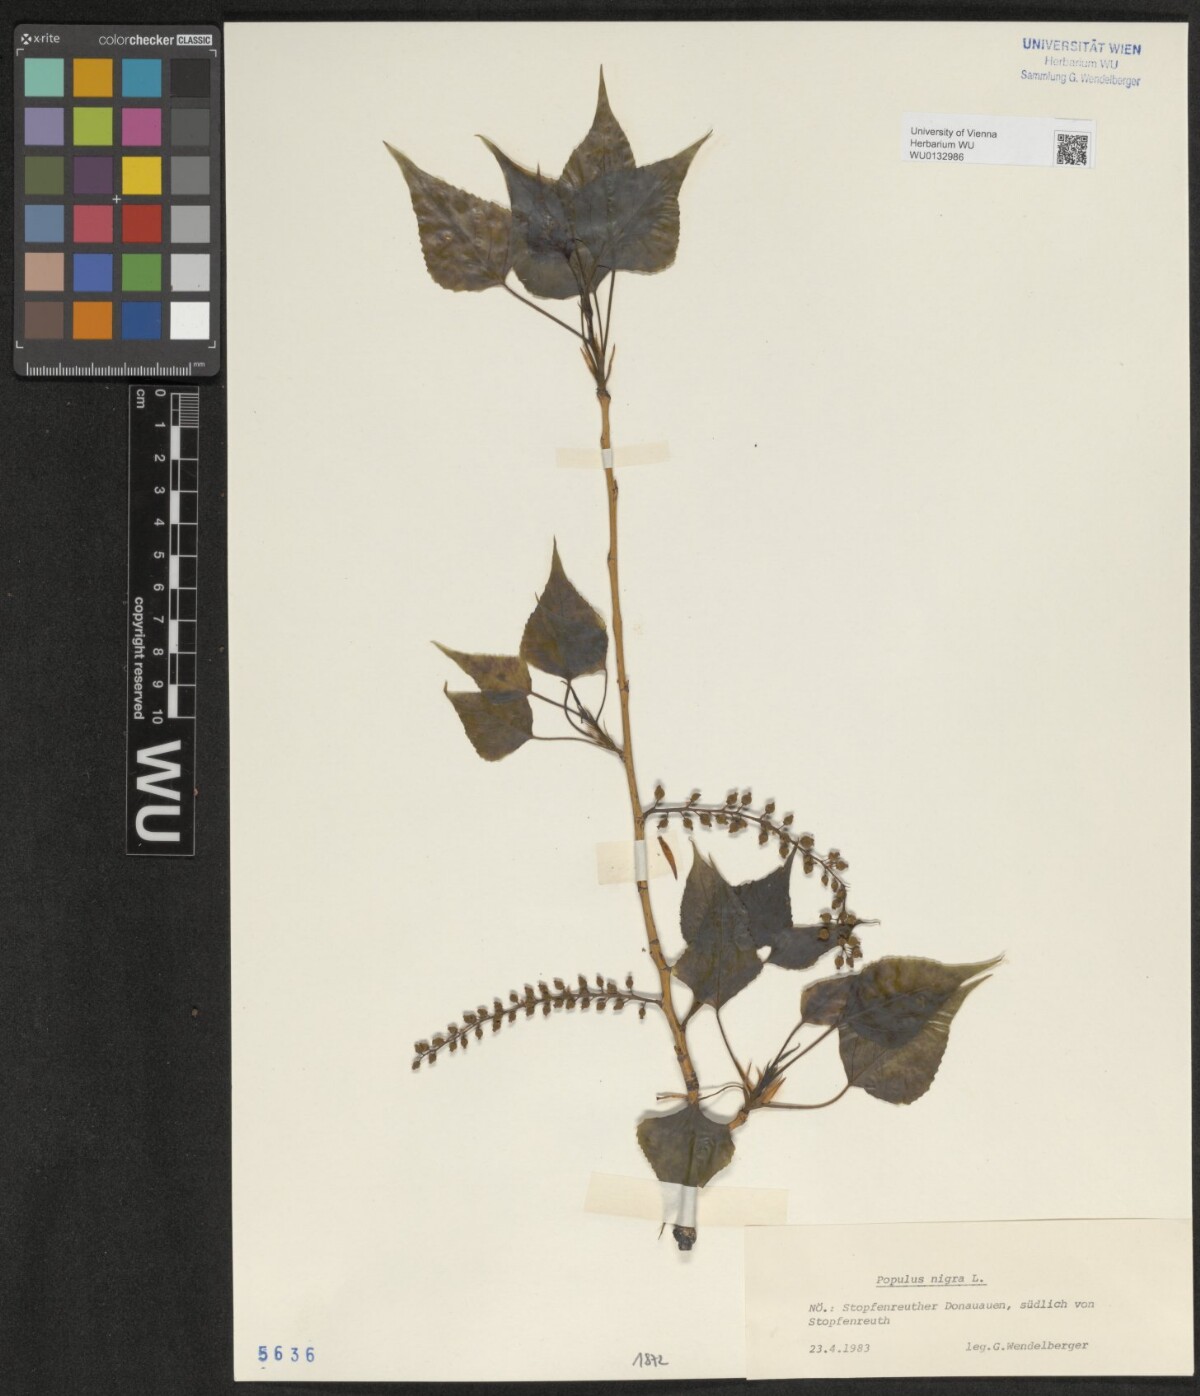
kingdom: Plantae
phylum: Tracheophyta
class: Magnoliopsida
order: Malpighiales
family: Salicaceae
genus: Populus
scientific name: Populus nigra
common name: Black poplar
